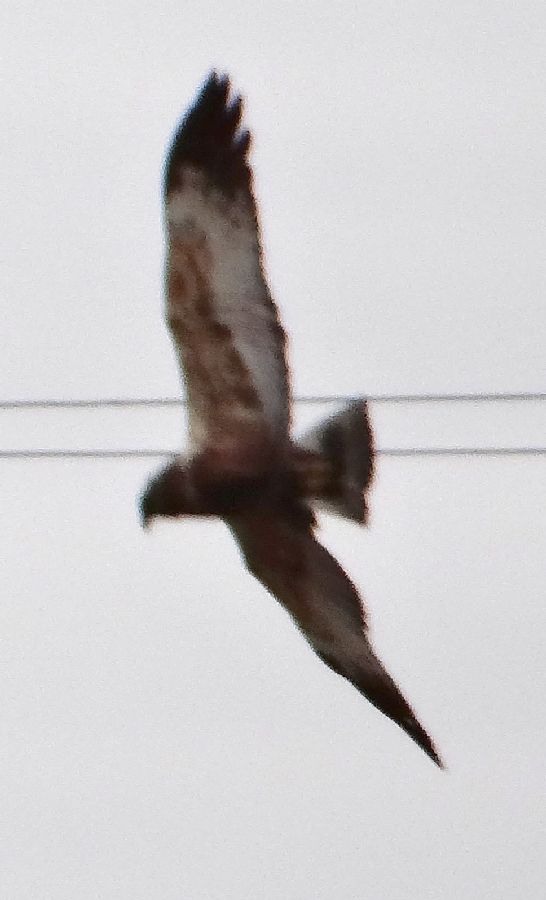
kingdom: Animalia
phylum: Chordata
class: Aves
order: Accipitriformes
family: Accipitridae
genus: Circus
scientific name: Circus aeruginosus
